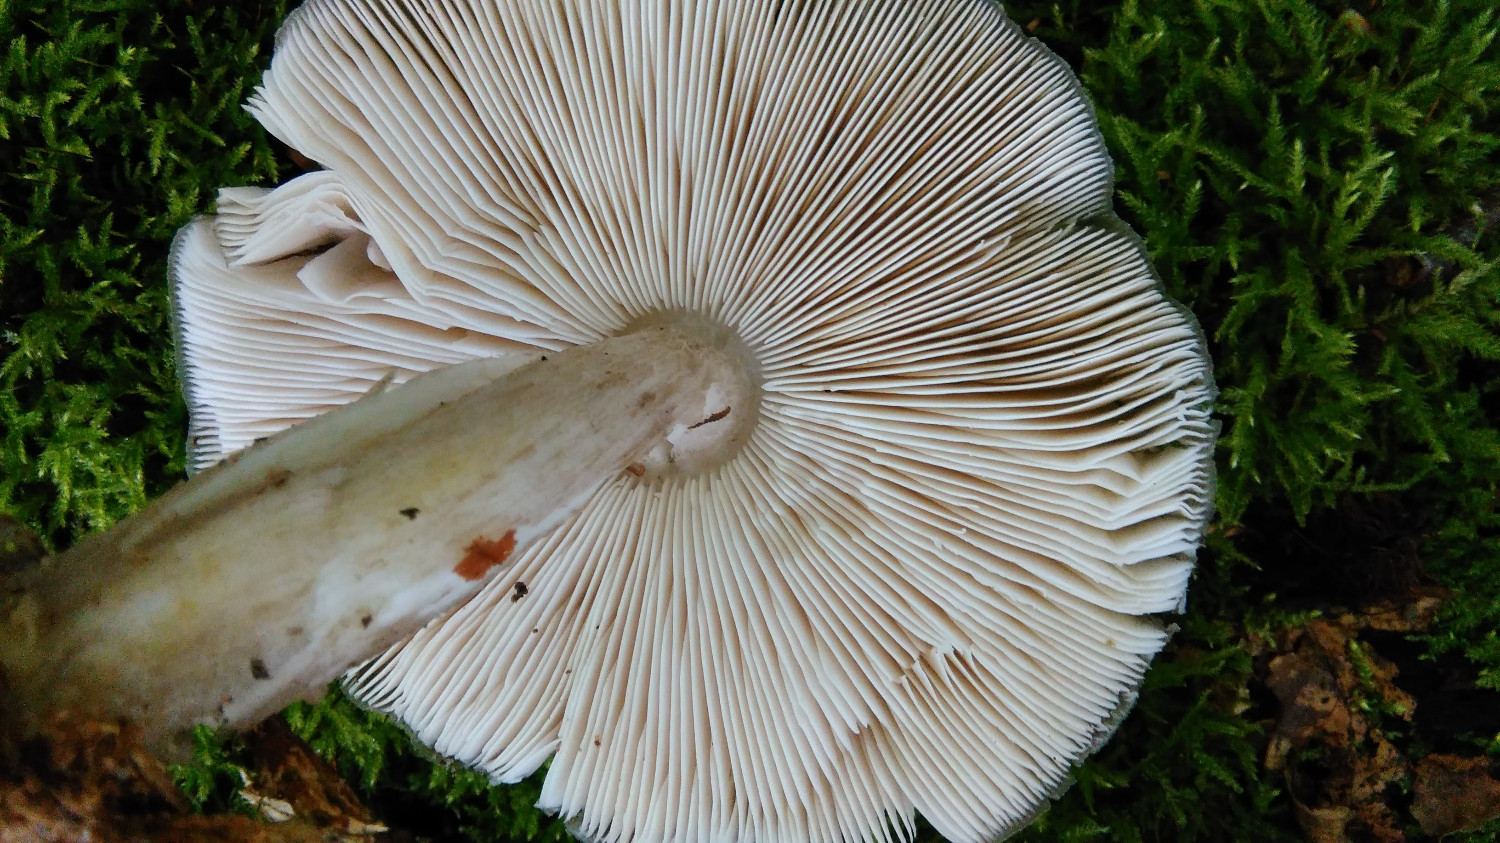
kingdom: Fungi
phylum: Basidiomycota
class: Agaricomycetes
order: Agaricales
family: Pluteaceae
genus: Pluteus
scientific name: Pluteus cervinus
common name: sodfarvet skærmhat
